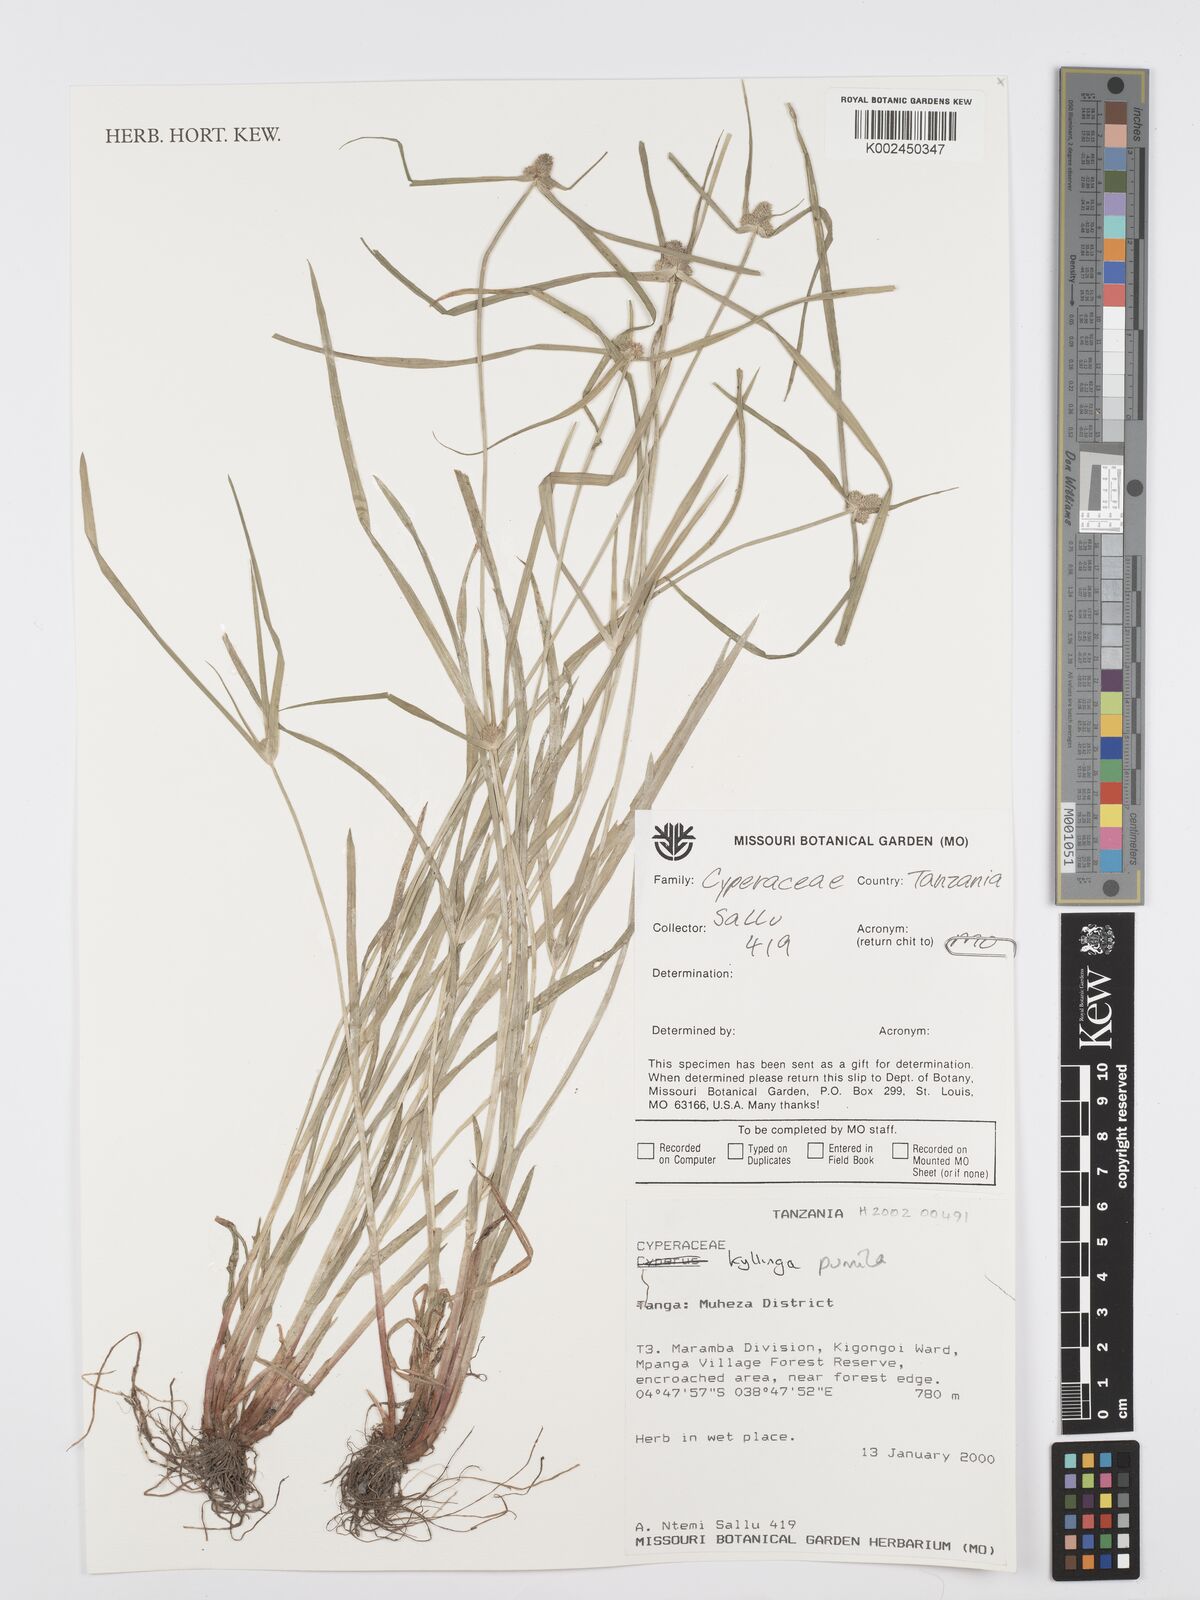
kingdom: Plantae
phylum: Tracheophyta
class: Liliopsida
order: Poales
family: Cyperaceae
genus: Cyperus
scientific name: Cyperus
